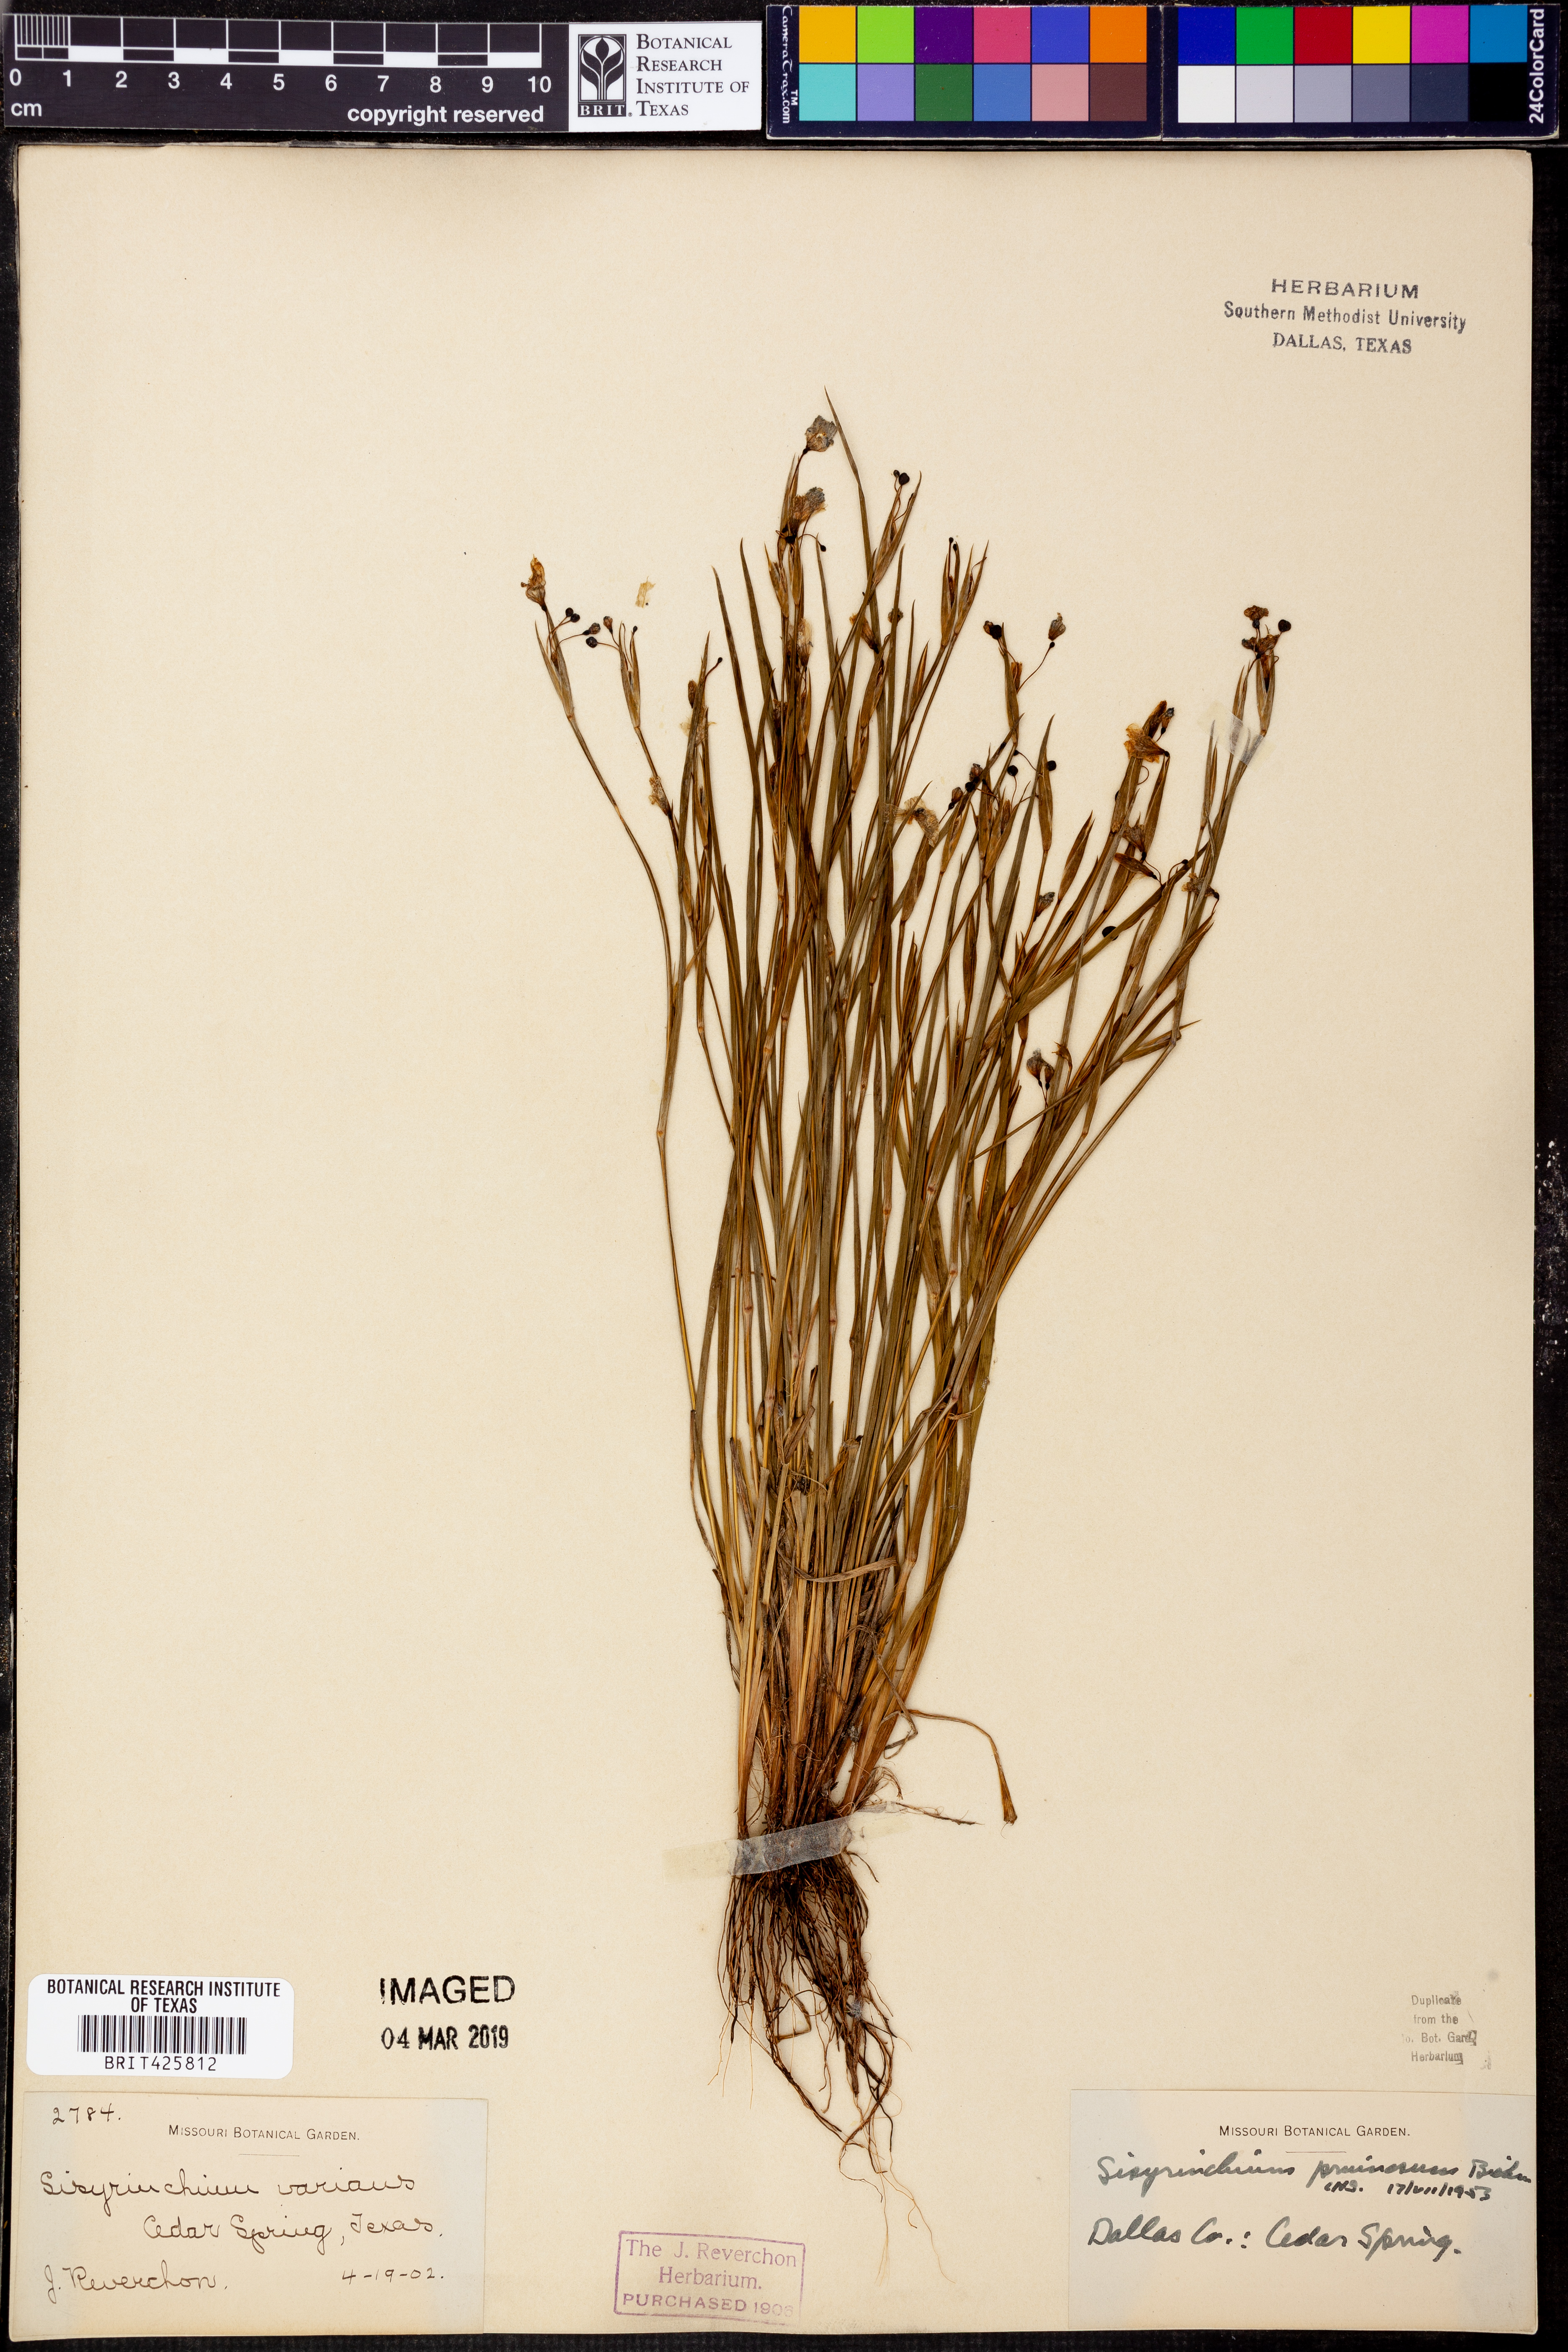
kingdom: Plantae
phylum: Tracheophyta
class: Liliopsida
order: Asparagales
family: Iridaceae
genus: Sisyrinchium
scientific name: Sisyrinchium pruinosum
